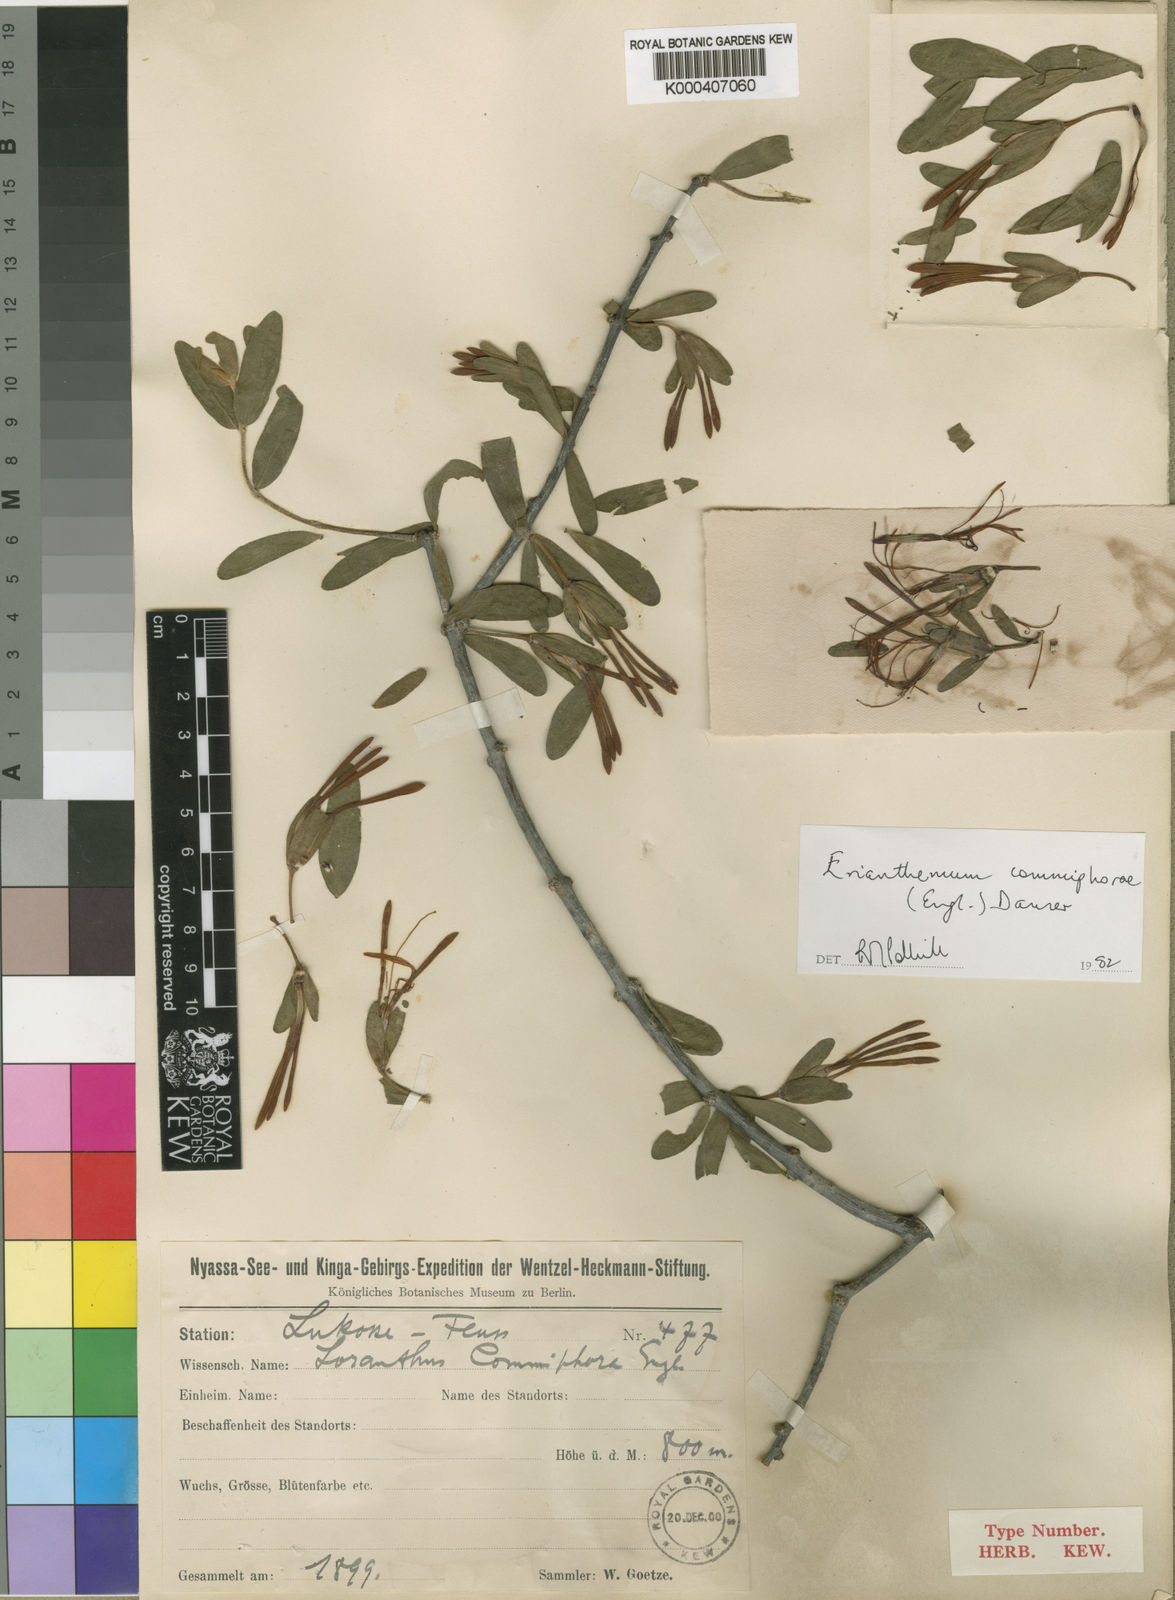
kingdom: Plantae
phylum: Tracheophyta
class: Magnoliopsida
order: Santalales
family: Loranthaceae
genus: Erianthemum
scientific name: Erianthemum
